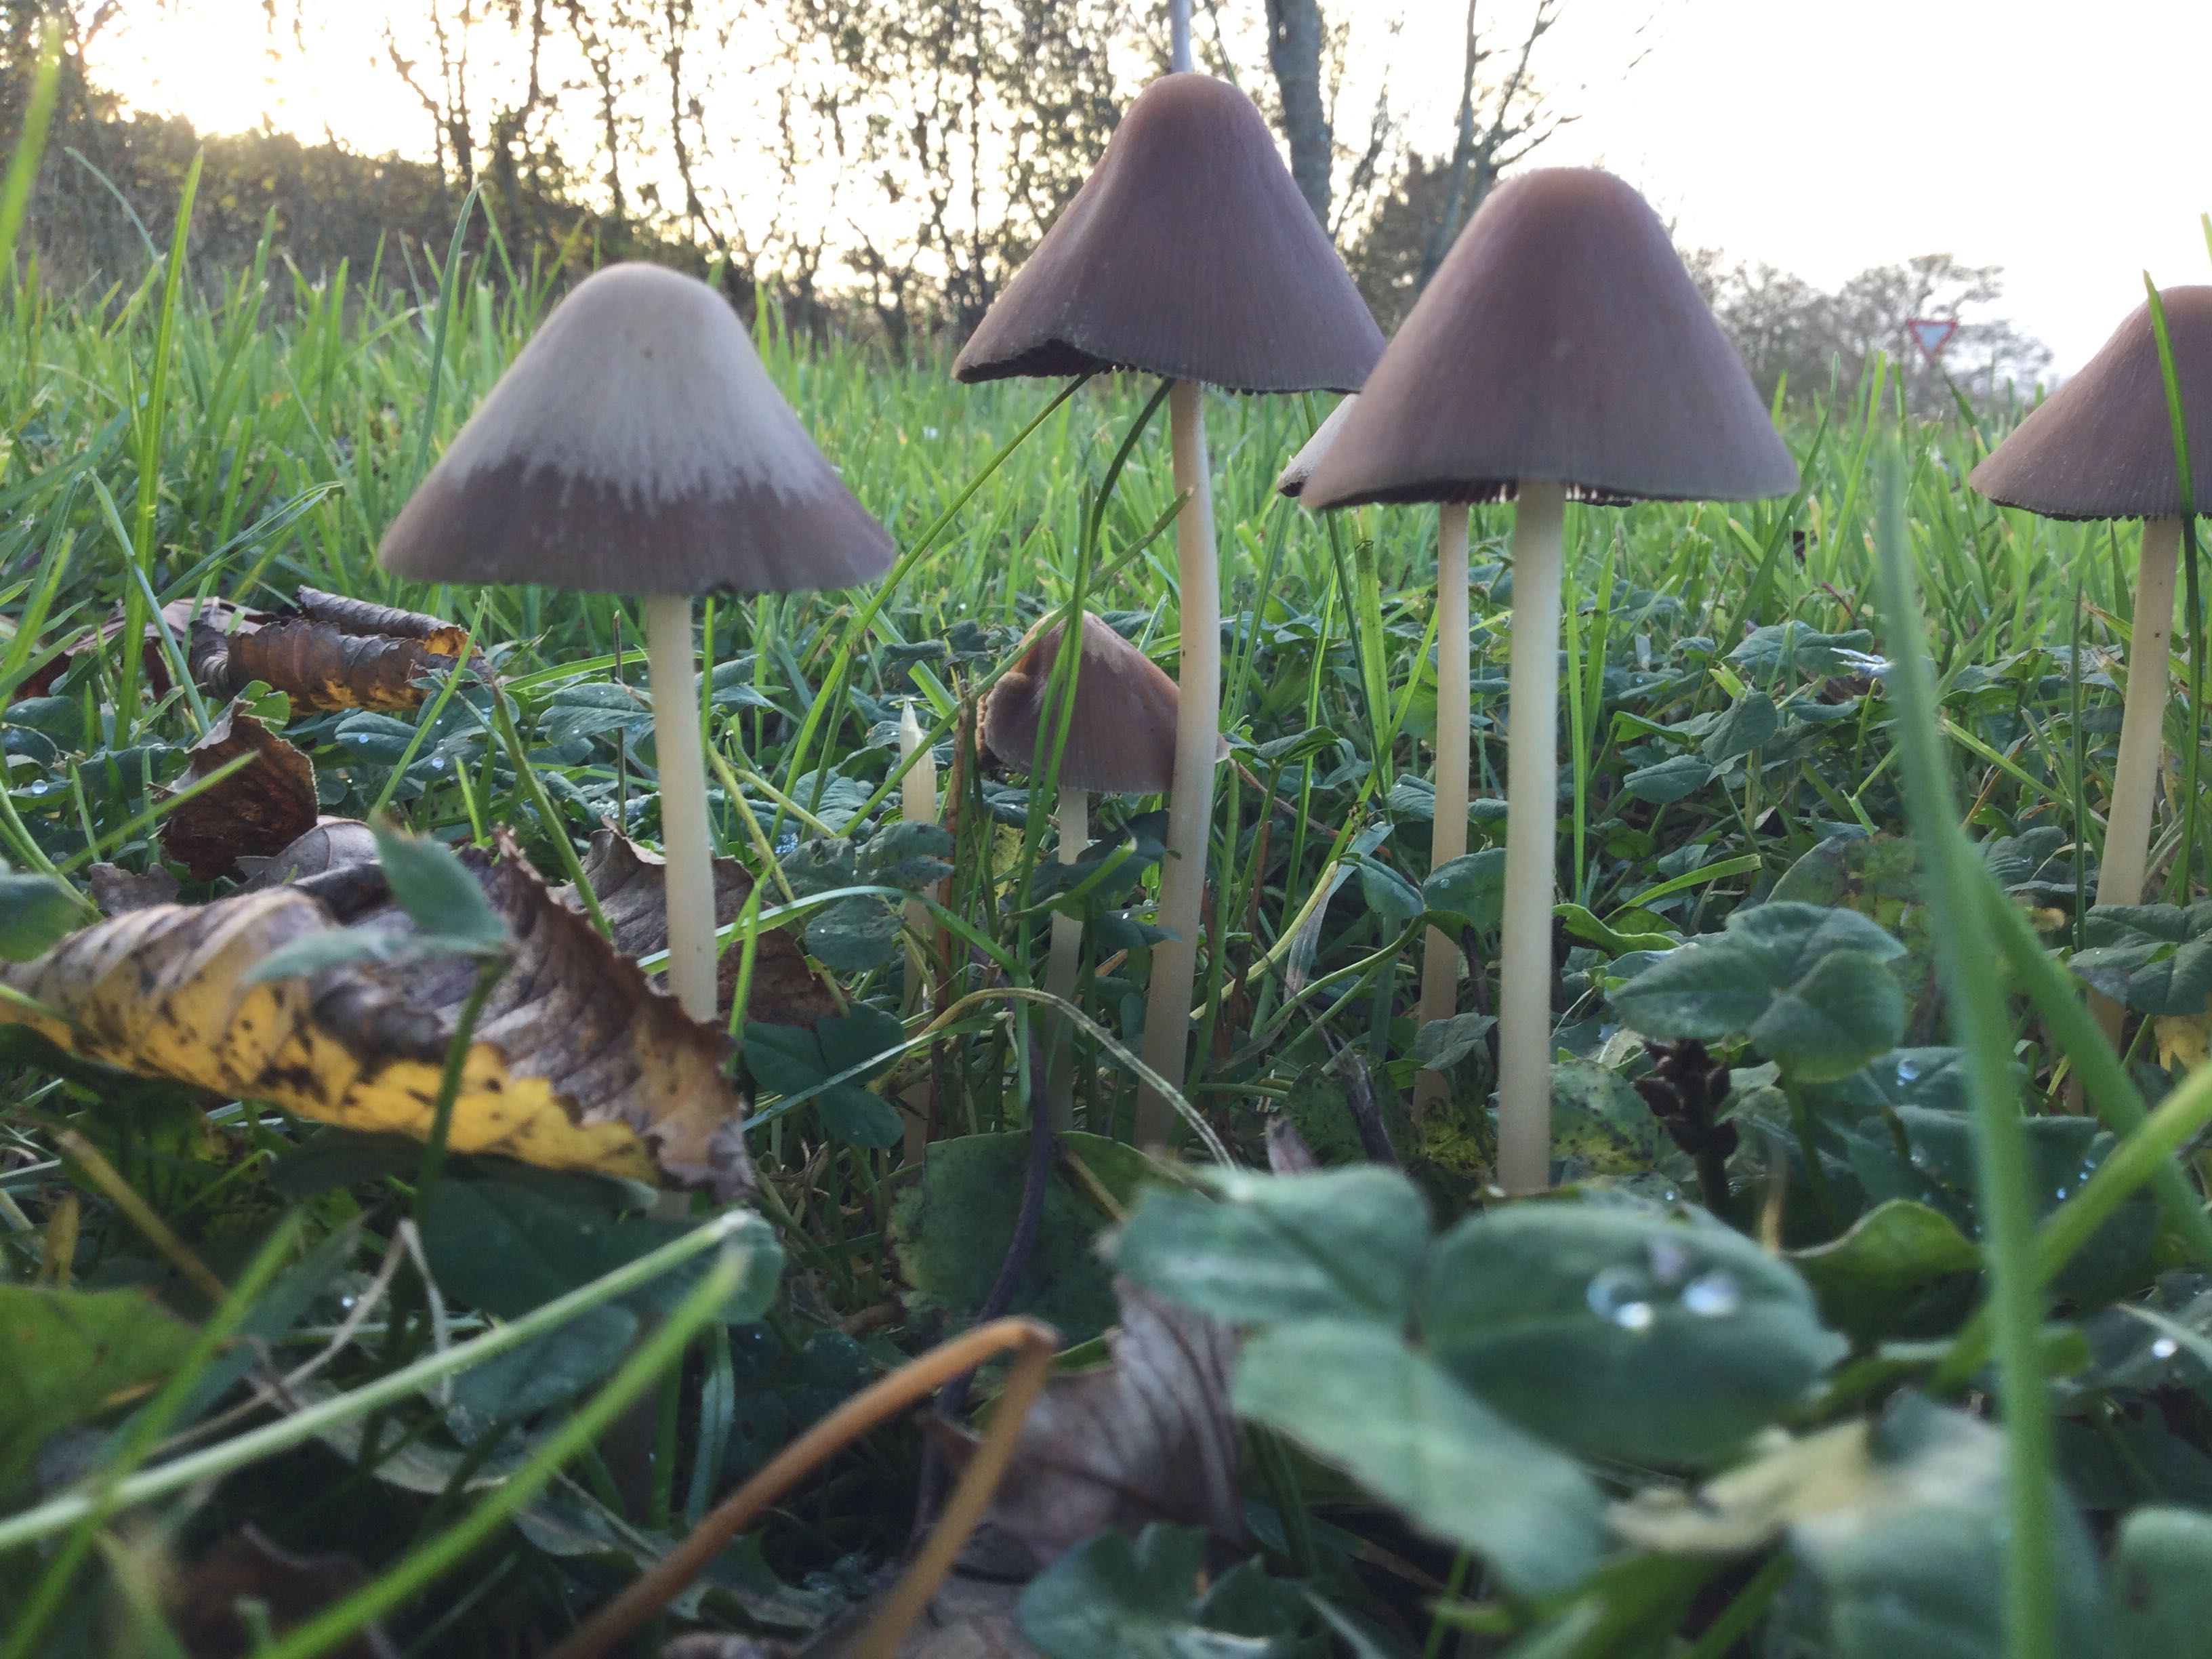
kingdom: Fungi
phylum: Basidiomycota
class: Agaricomycetes
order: Agaricales
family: Psathyrellaceae
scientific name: Psathyrellaceae
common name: mørkhatfamilien
